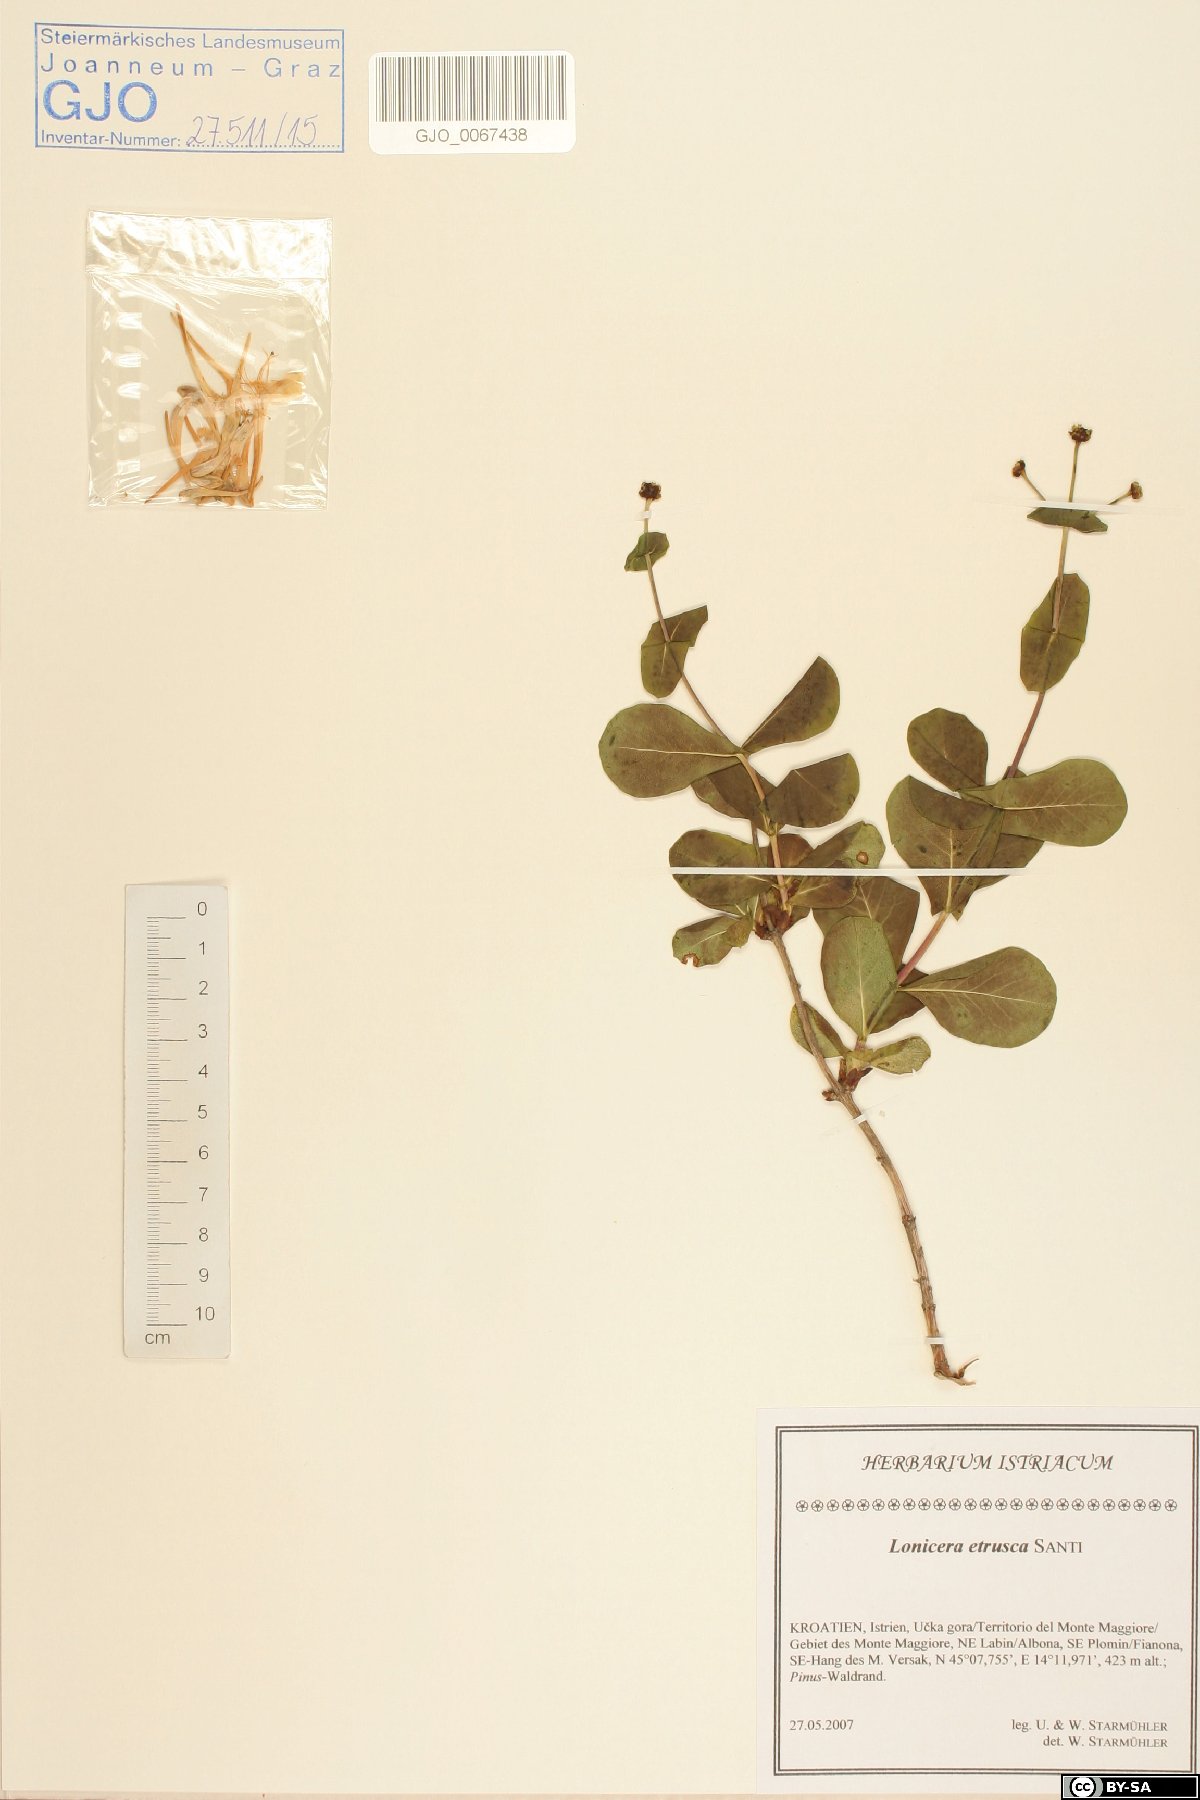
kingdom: Plantae
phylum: Tracheophyta
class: Magnoliopsida
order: Dipsacales
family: Caprifoliaceae
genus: Lonicera
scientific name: Lonicera etrusca
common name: Etruscan honeysuckle
